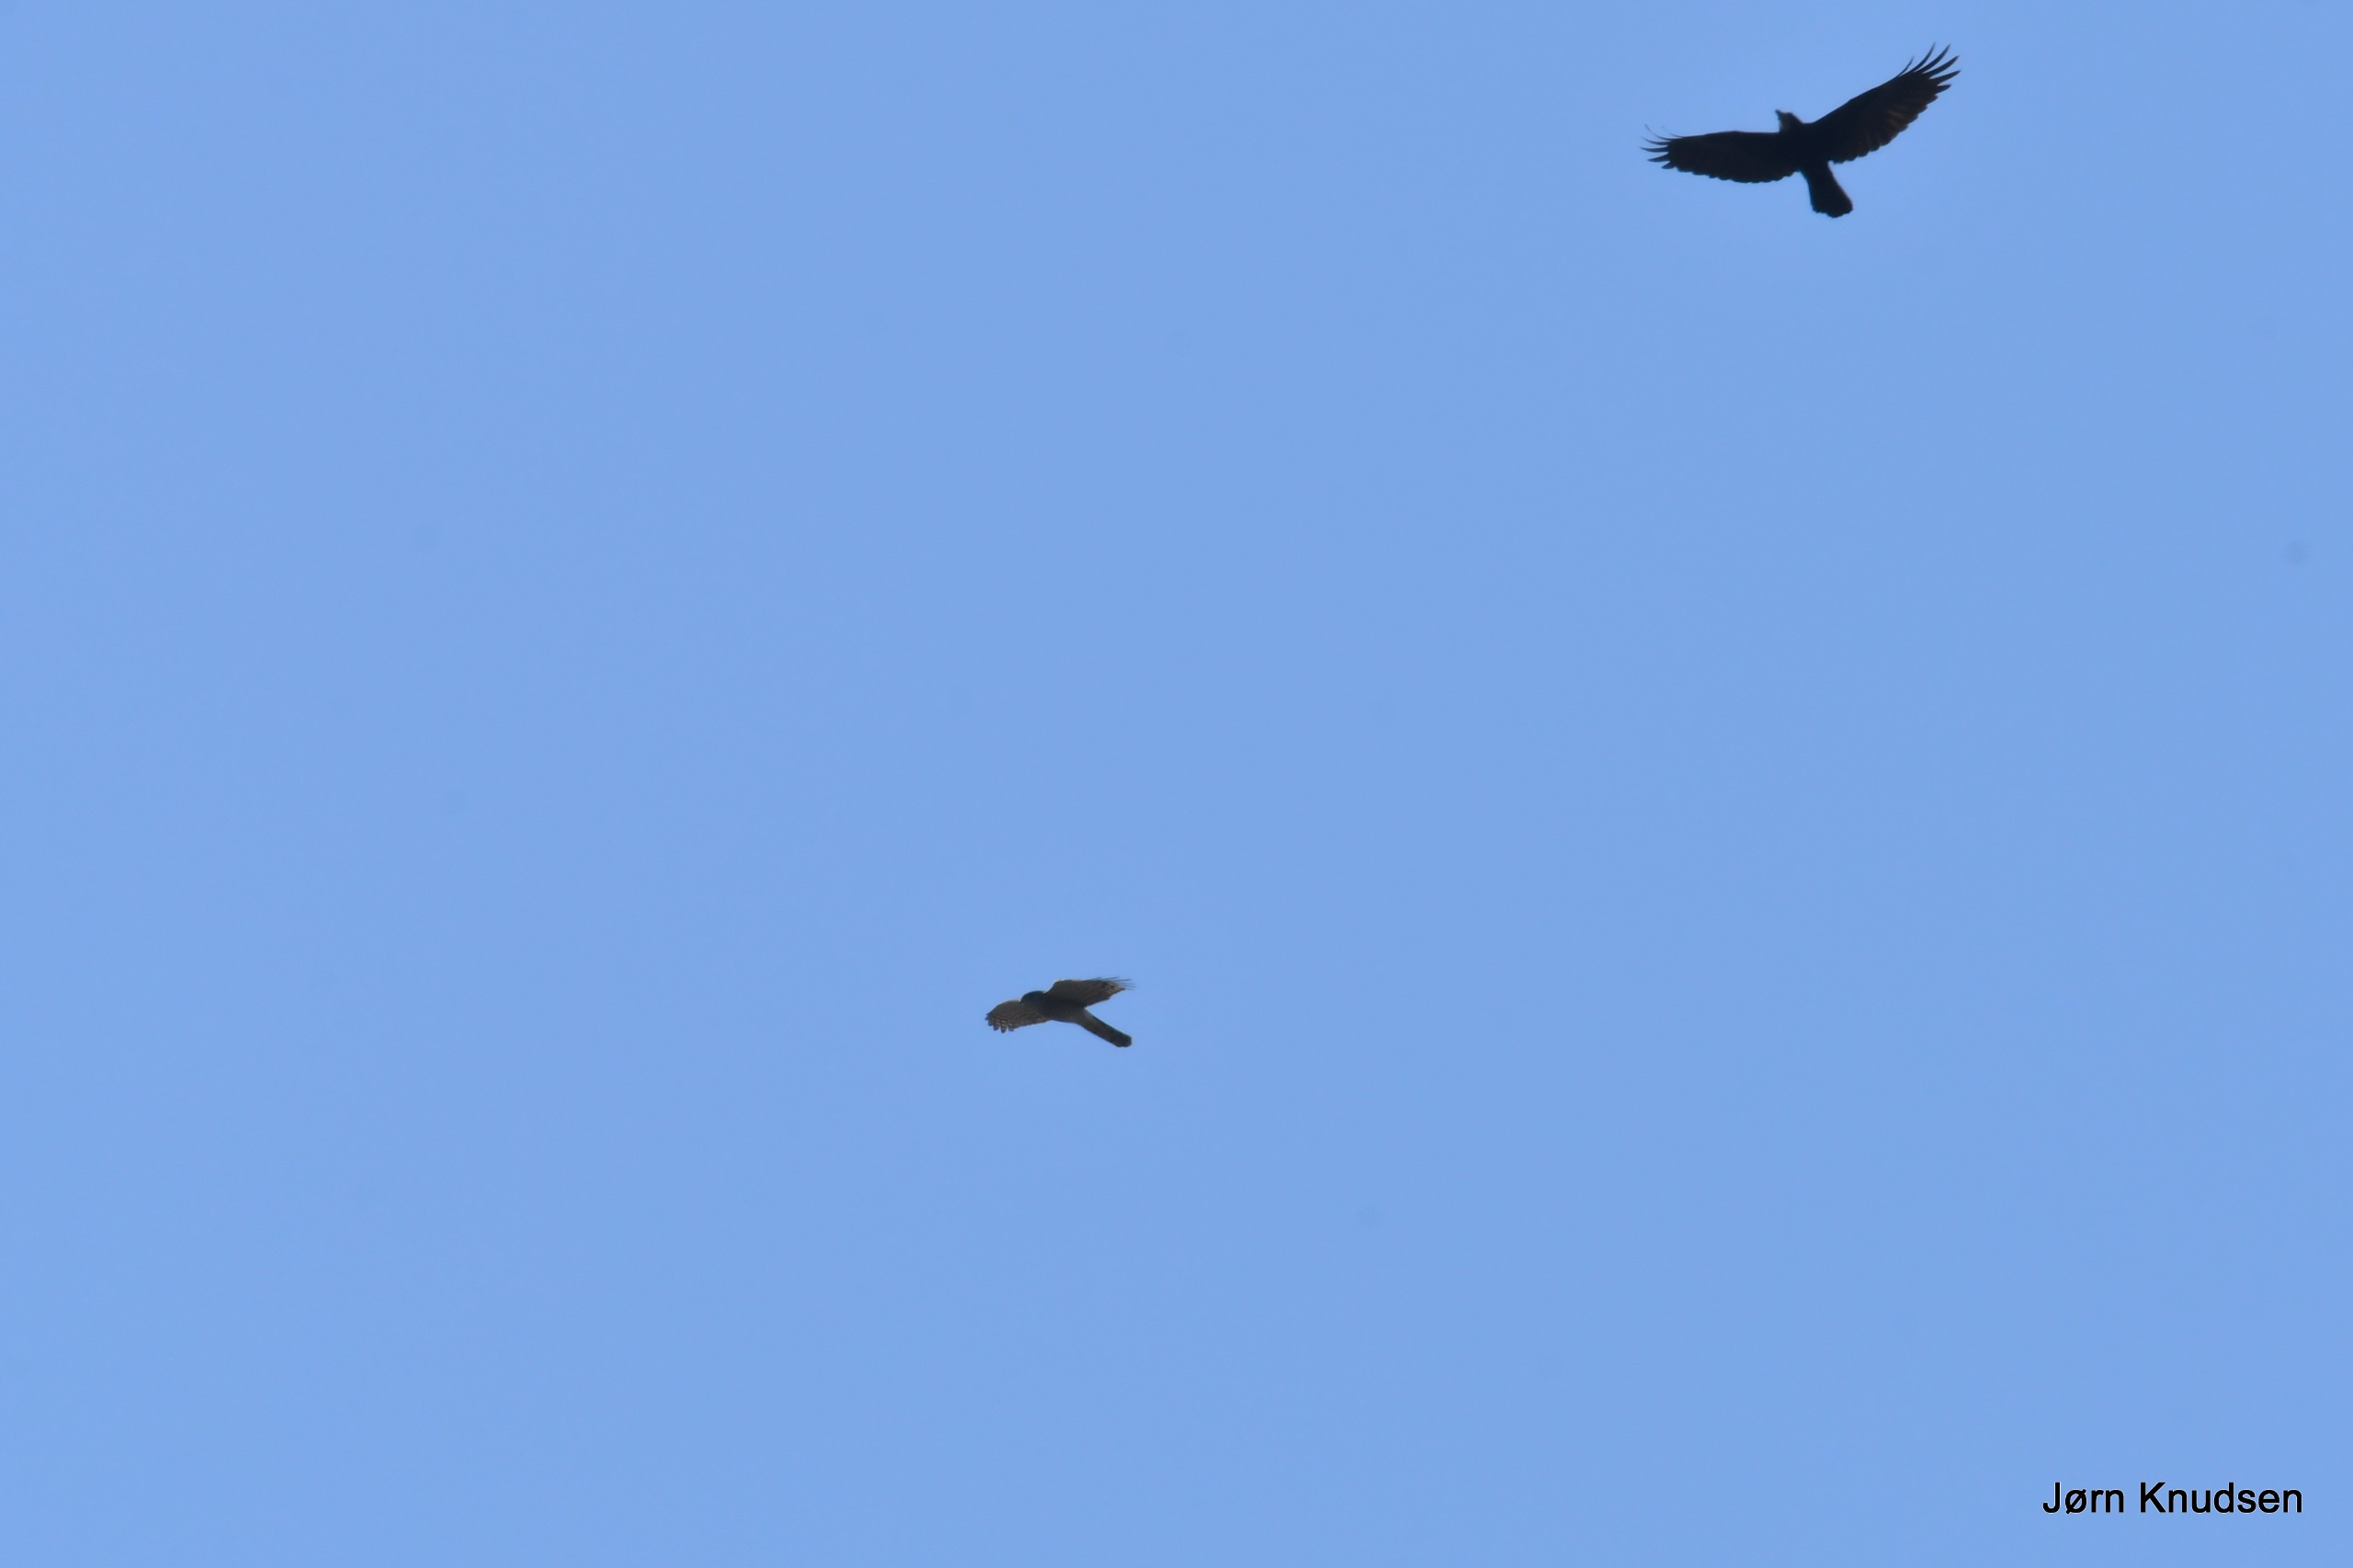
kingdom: Animalia
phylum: Chordata
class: Aves
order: Accipitriformes
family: Accipitridae
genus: Accipiter
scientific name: Accipiter nisus
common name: Spurvehøg
